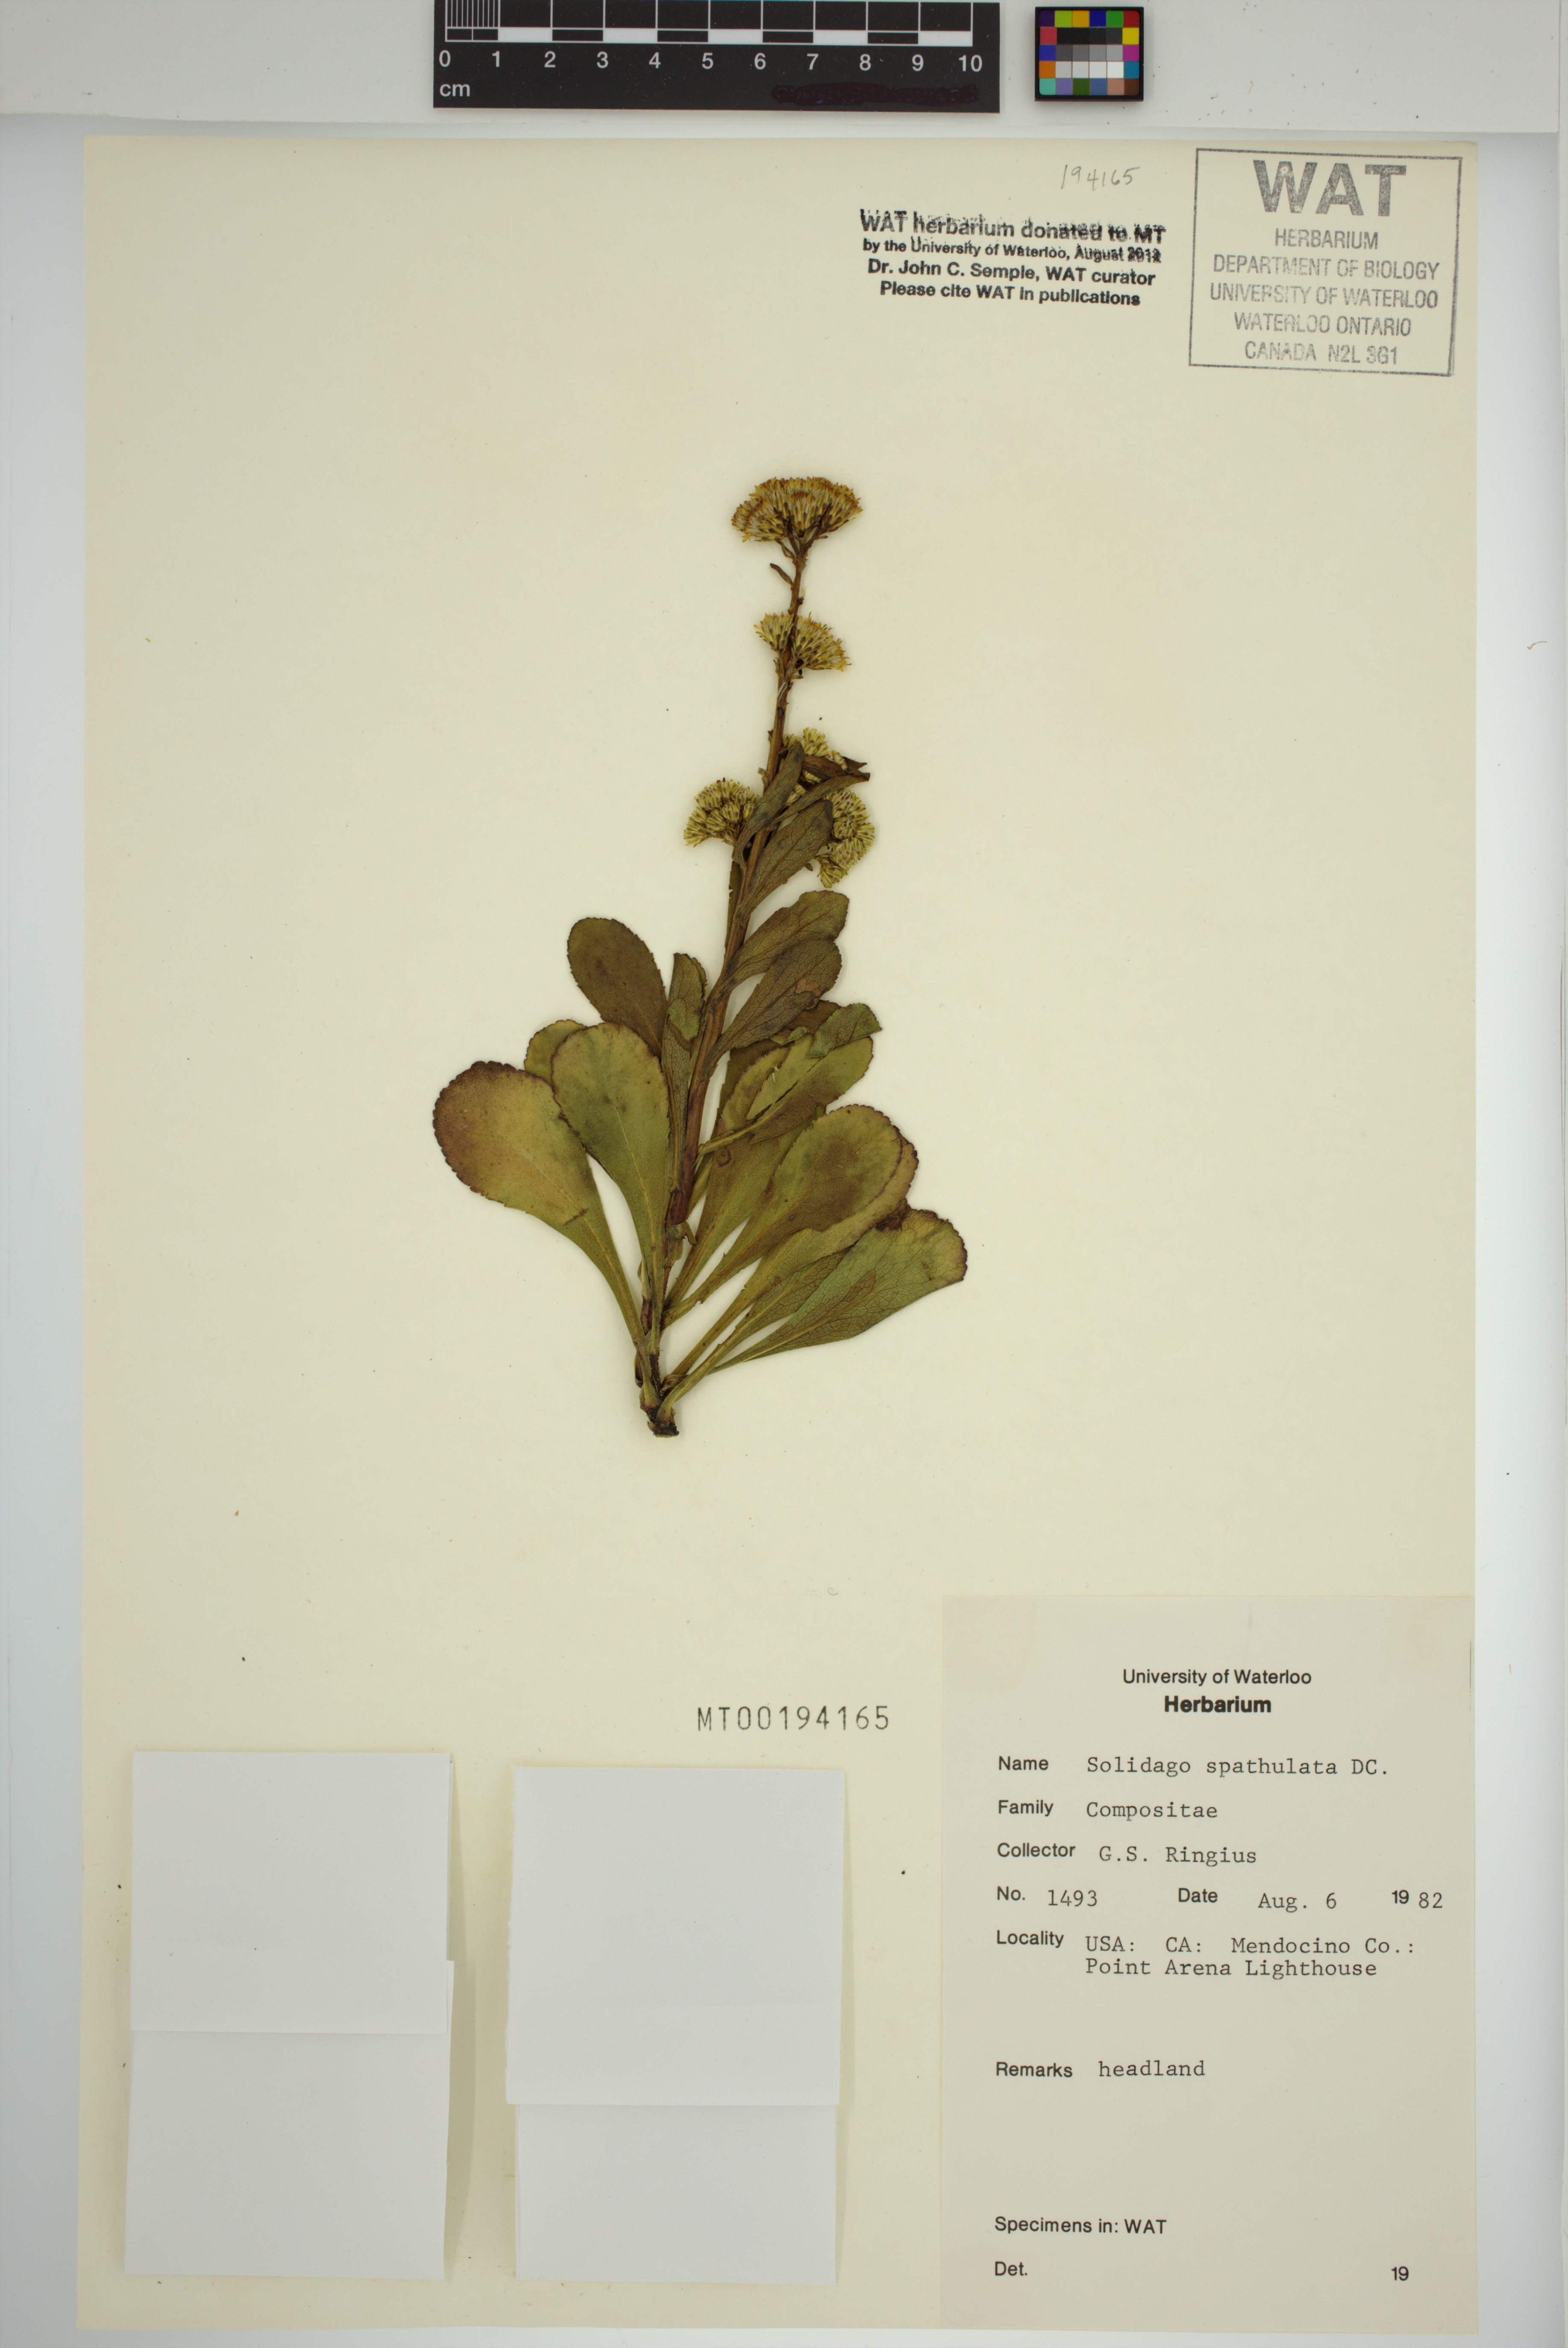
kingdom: Plantae
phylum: Tracheophyta
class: Magnoliopsida
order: Asterales
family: Asteraceae
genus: Solidago
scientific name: Solidago spathulata
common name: Coast goldenrod
